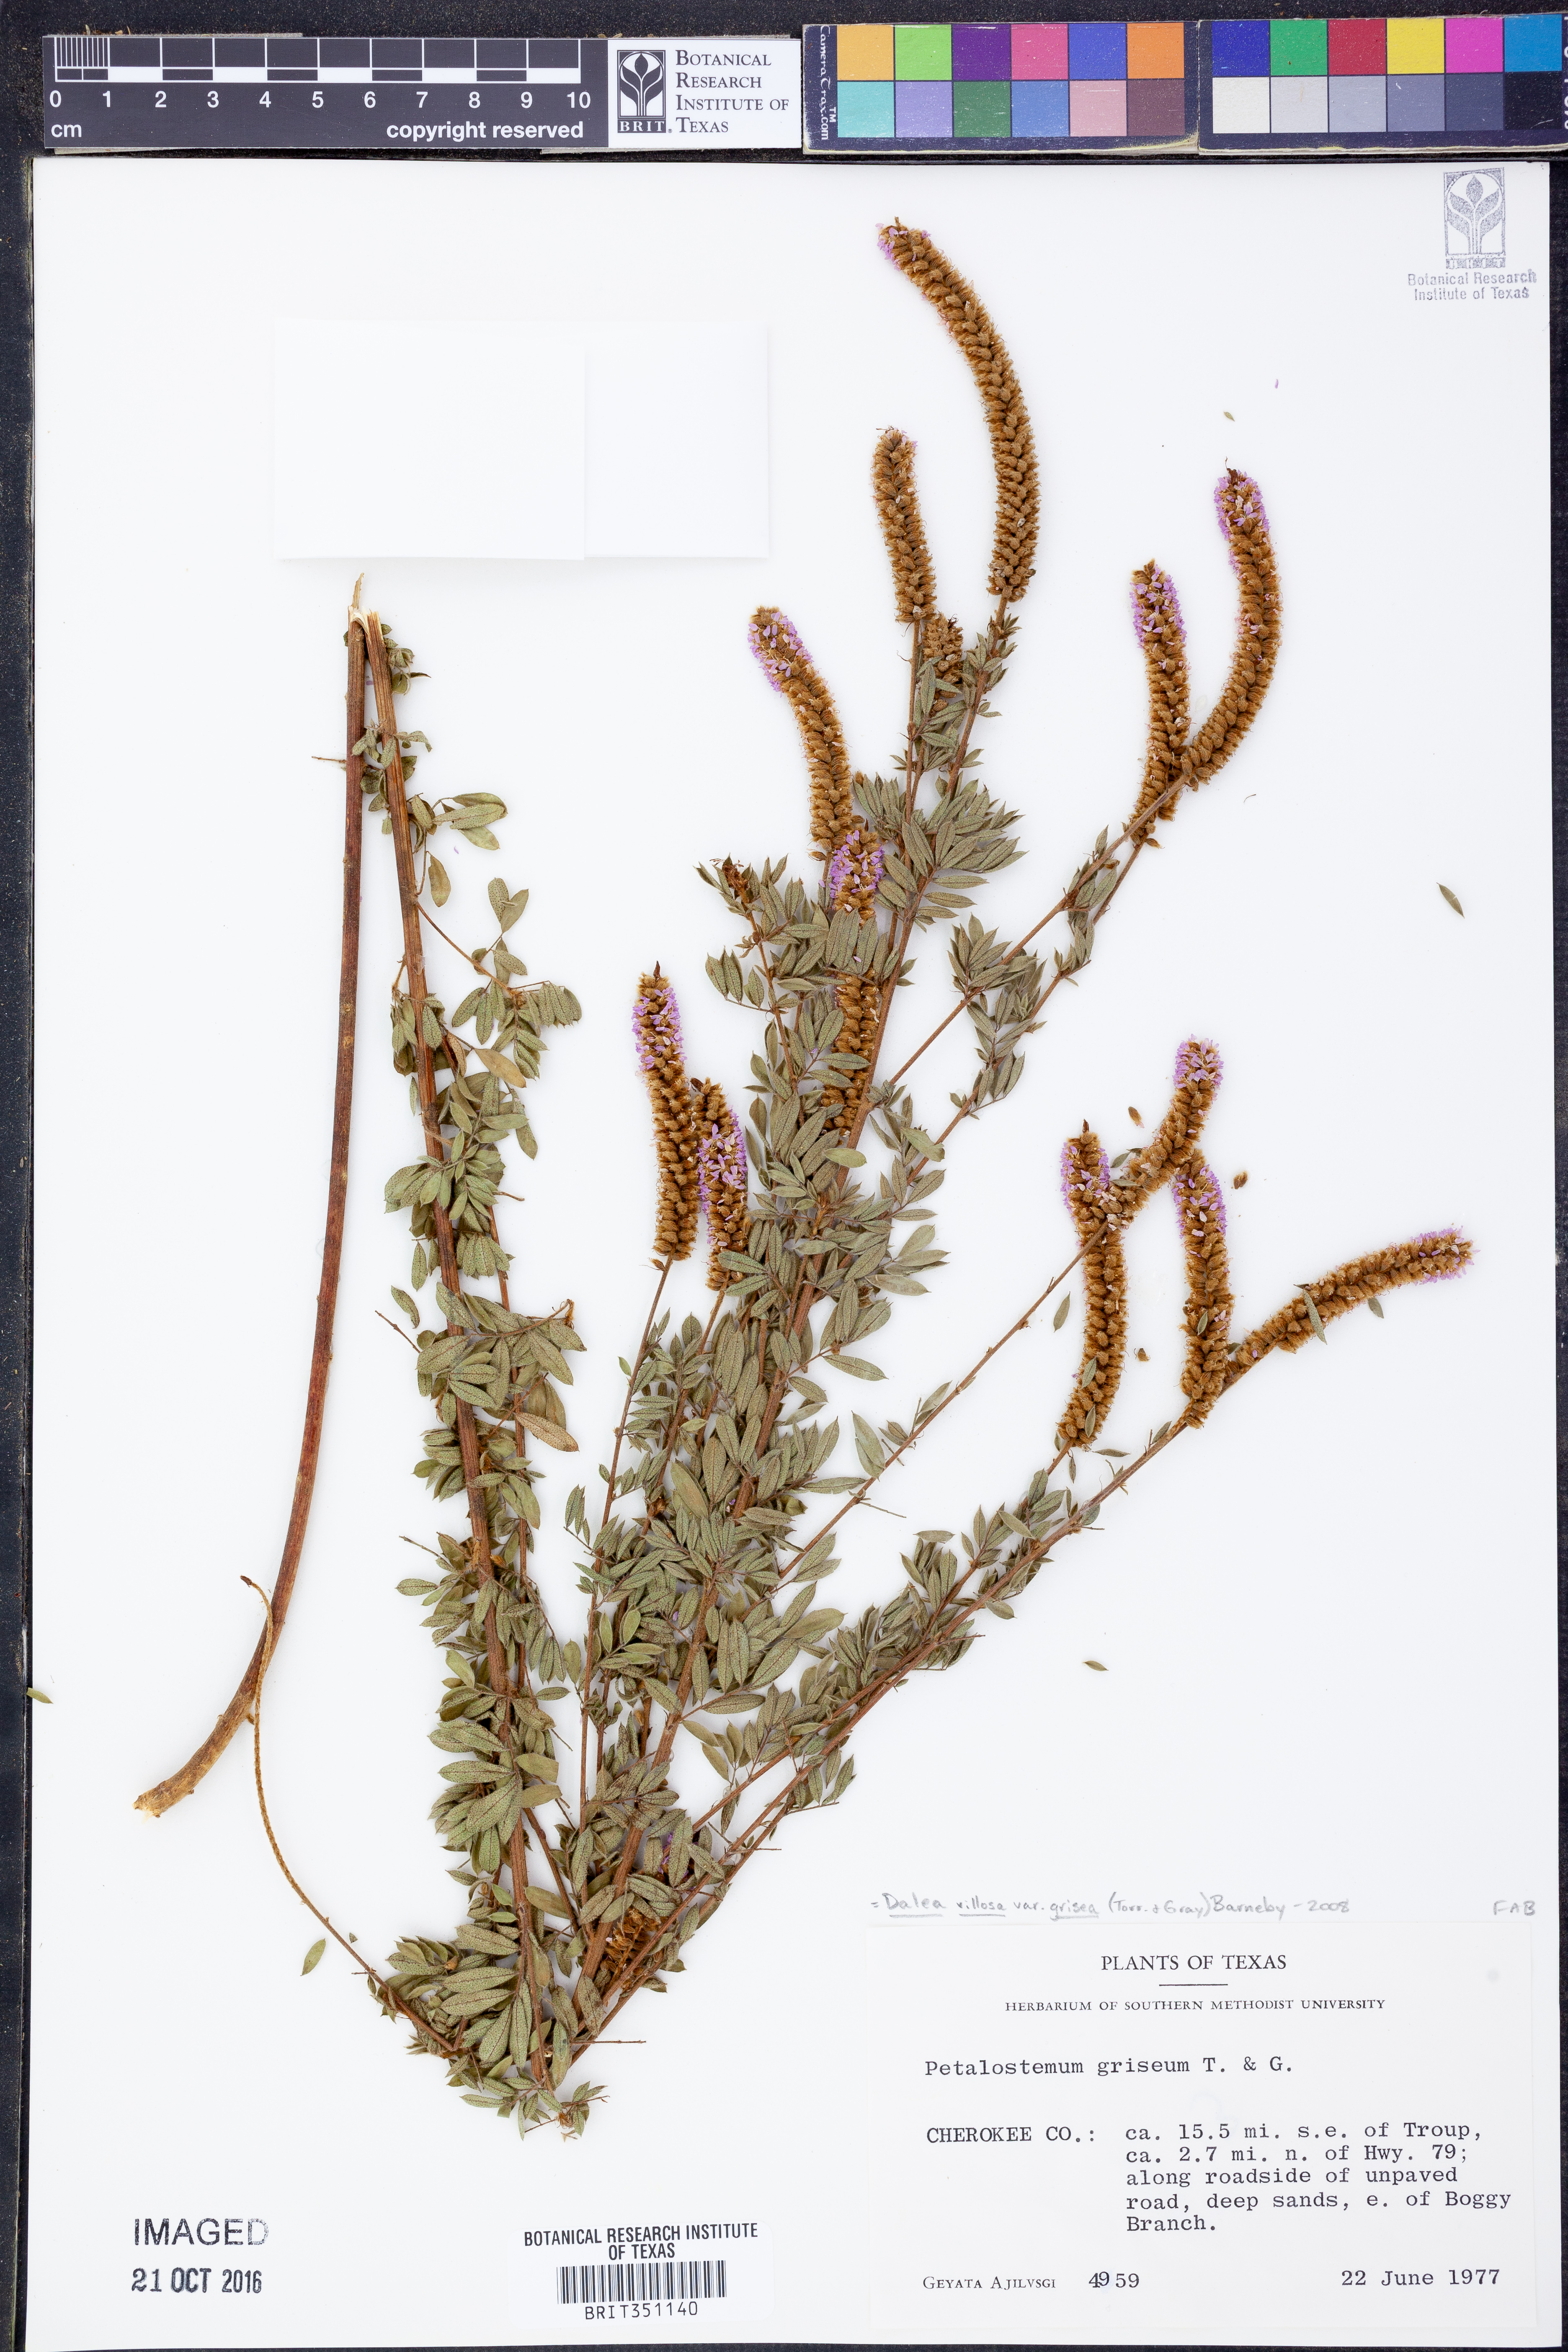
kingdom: Plantae
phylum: Tracheophyta
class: Magnoliopsida
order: Fabales
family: Fabaceae
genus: Dalea
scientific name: Dalea villosa
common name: Silky prairie-clover
